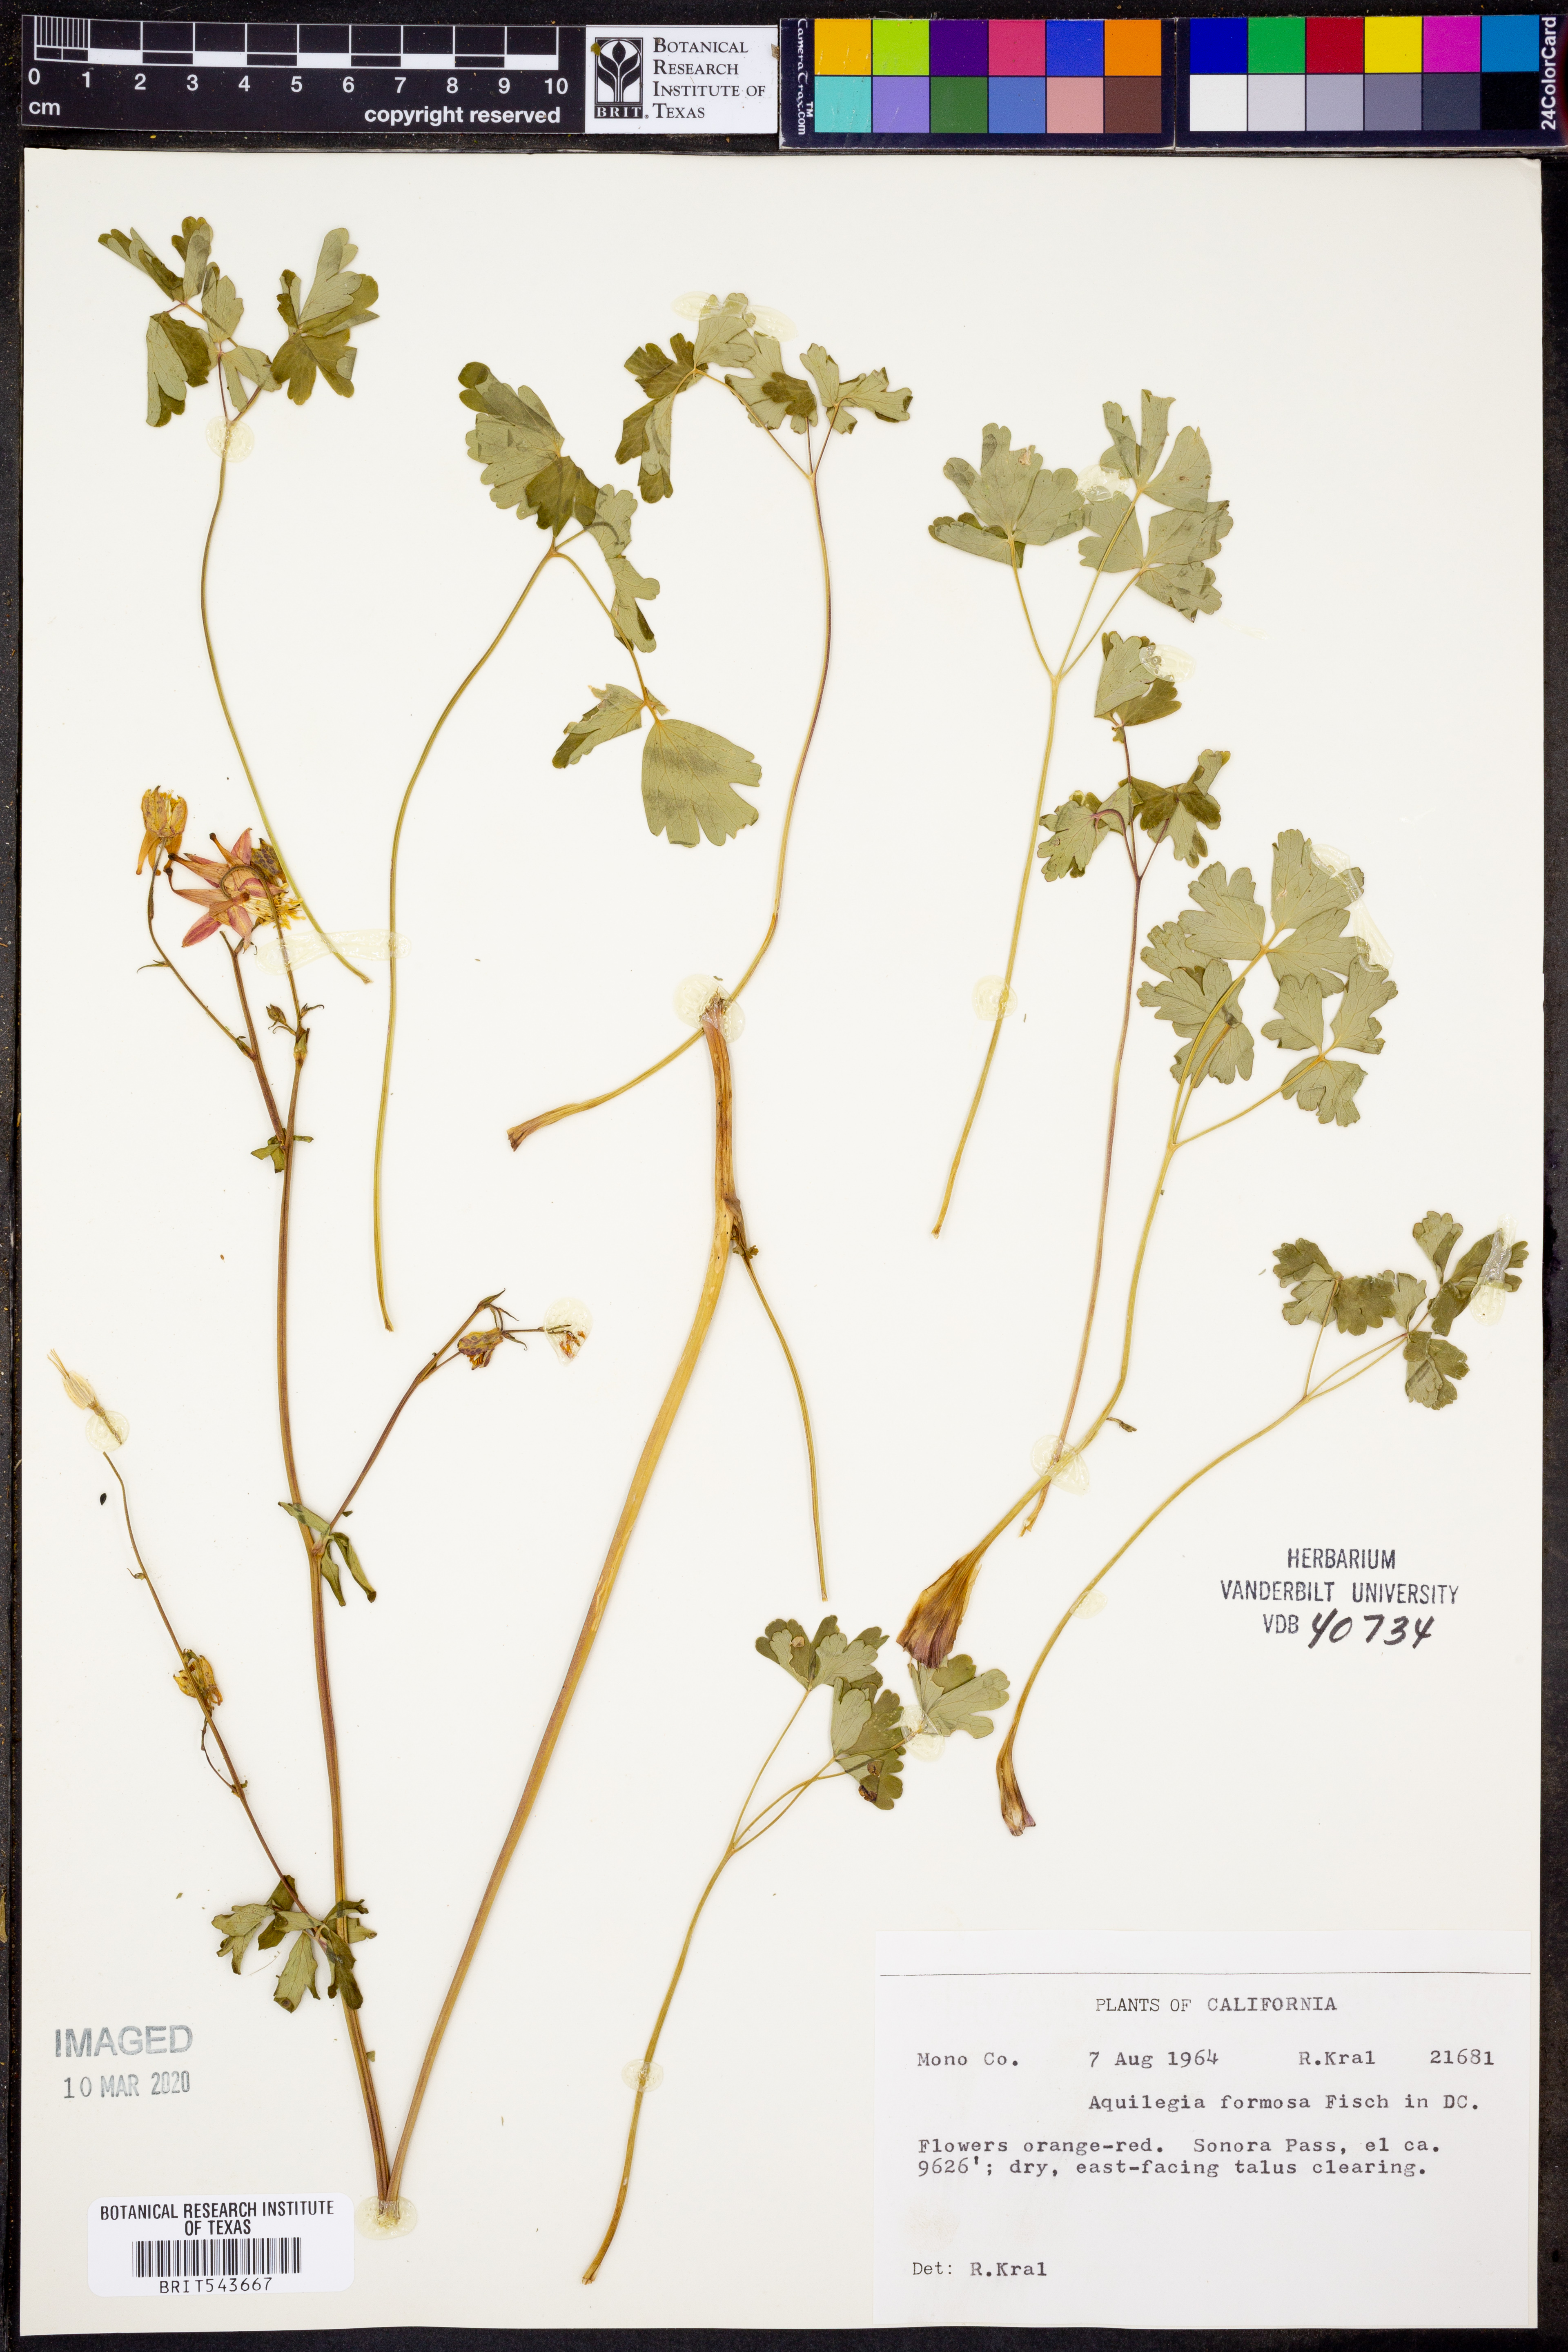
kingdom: Plantae
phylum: Tracheophyta
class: Magnoliopsida
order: Ranunculales
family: Ranunculaceae
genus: Aquilegia
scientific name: Aquilegia formosa
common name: Sitka columbine
